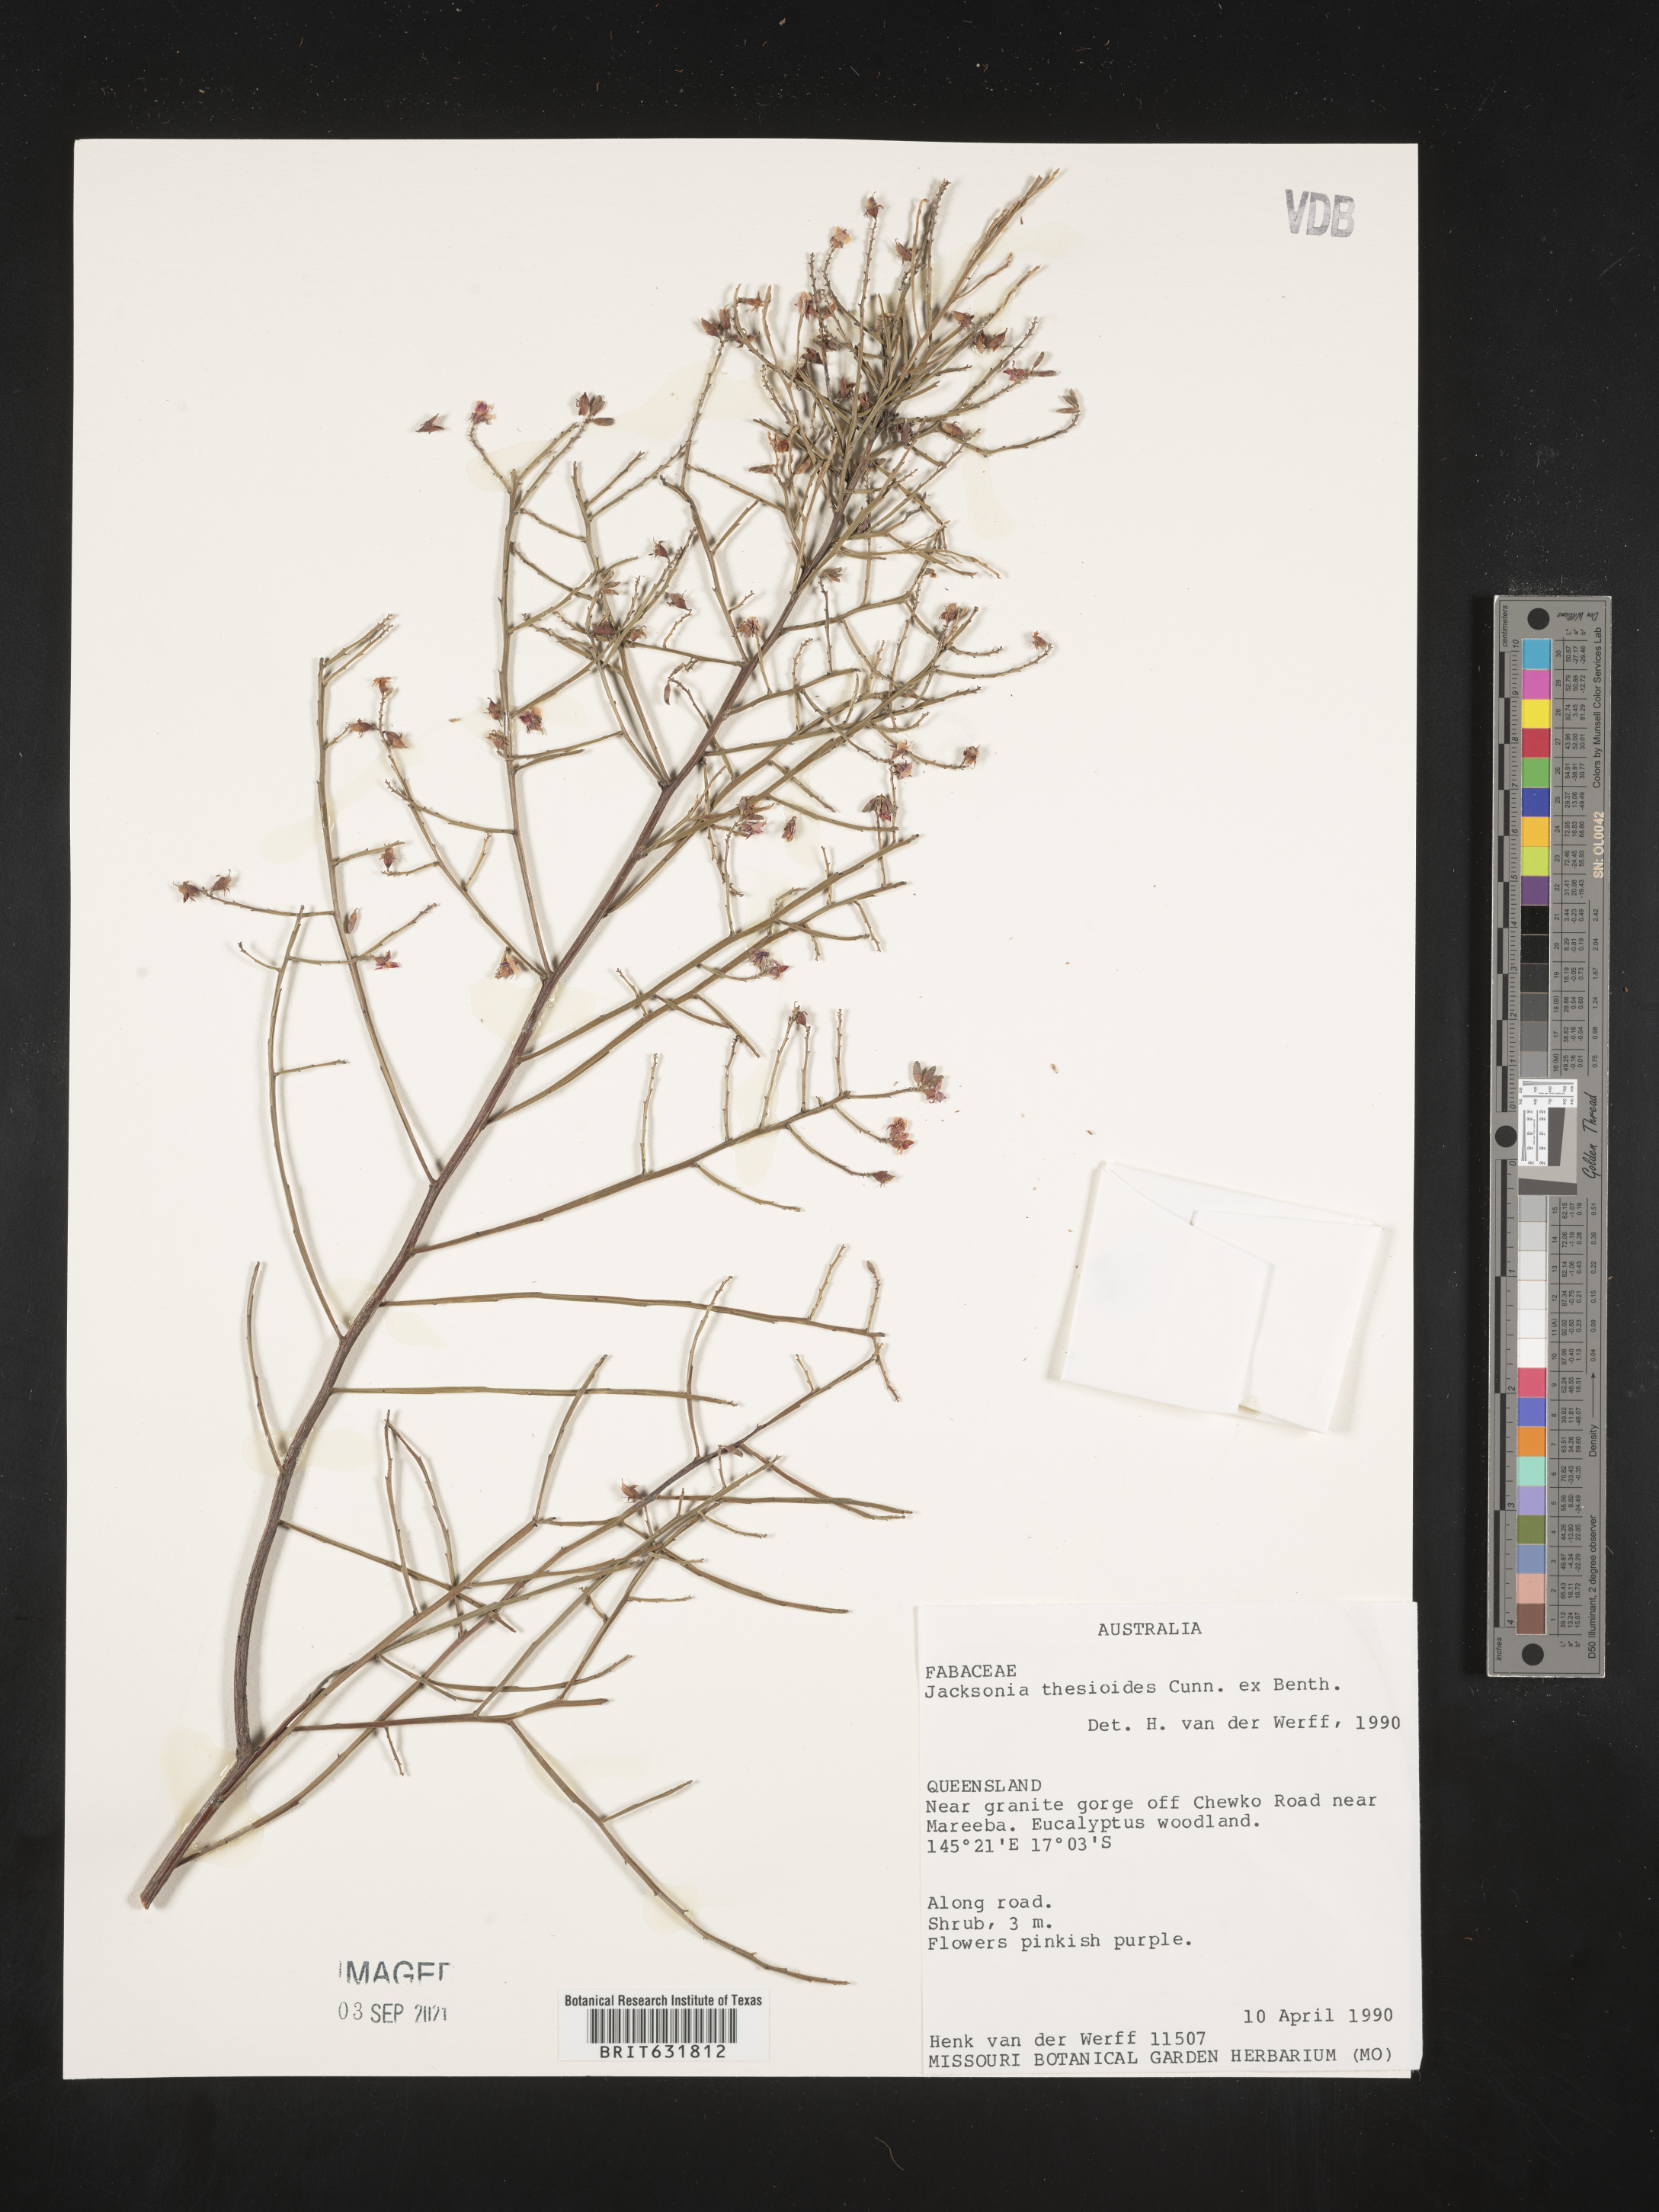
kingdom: Plantae
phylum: Tracheophyta
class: Magnoliopsida
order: Fabales
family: Fabaceae
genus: Jacksonia
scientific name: Jacksonia
